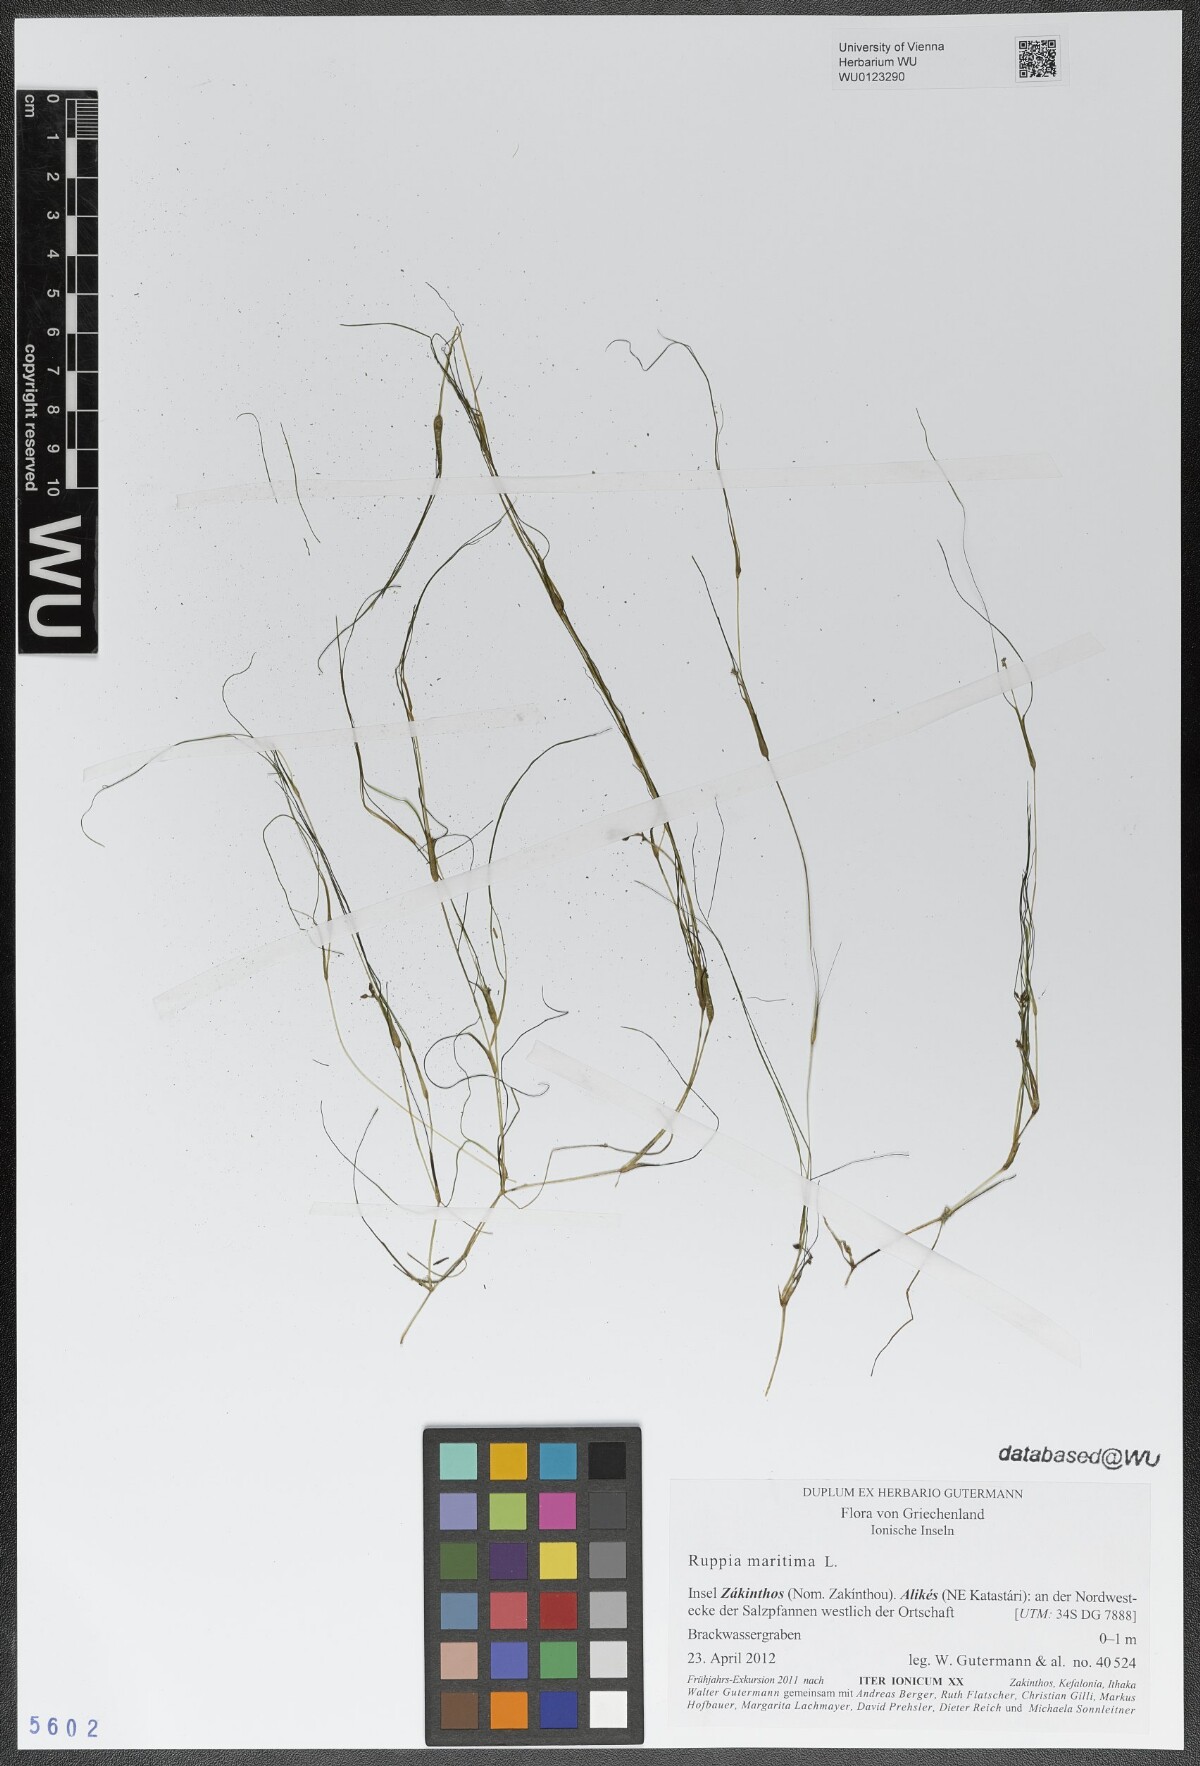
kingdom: Plantae
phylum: Tracheophyta
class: Liliopsida
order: Alismatales
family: Ruppiaceae
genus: Ruppia
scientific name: Ruppia maritima
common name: Beaked tasselweed
